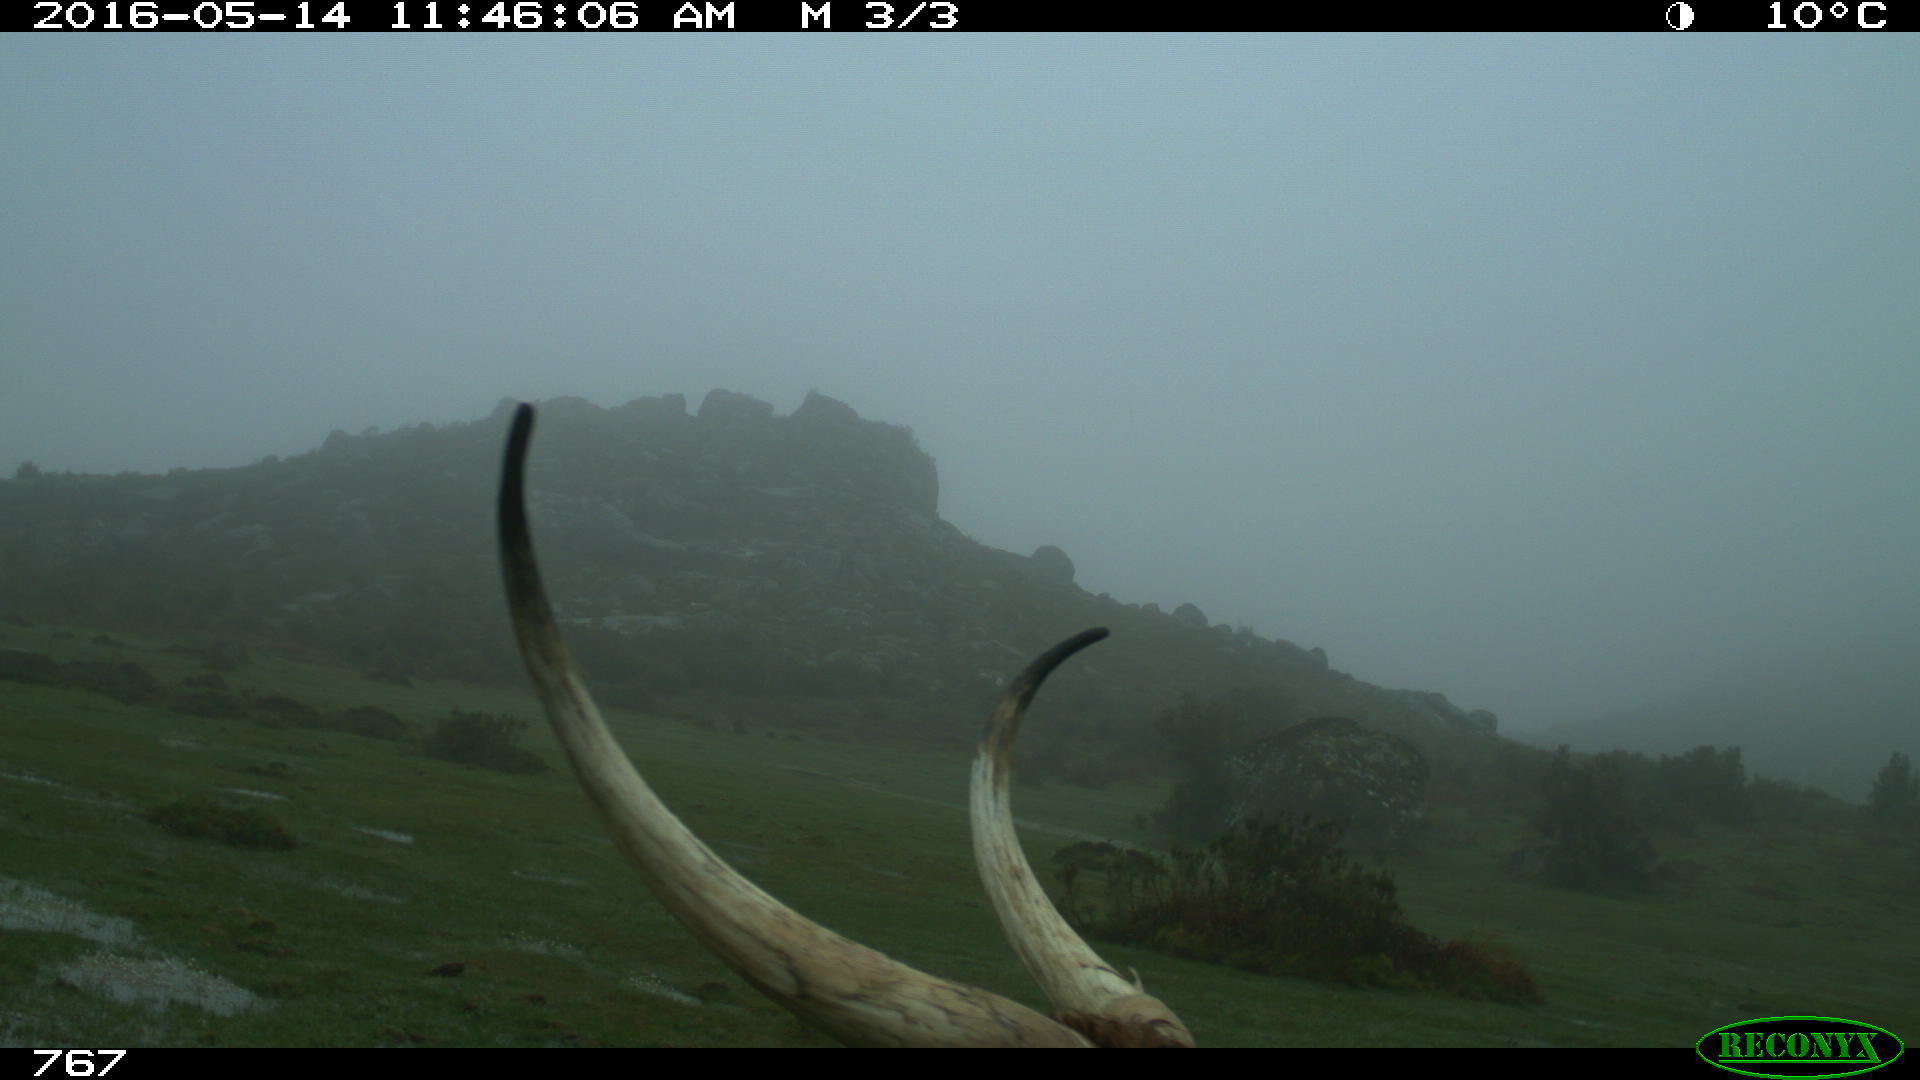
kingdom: Animalia
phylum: Chordata
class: Mammalia
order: Artiodactyla
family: Bovidae
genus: Bos
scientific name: Bos taurus
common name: Domesticated cattle
